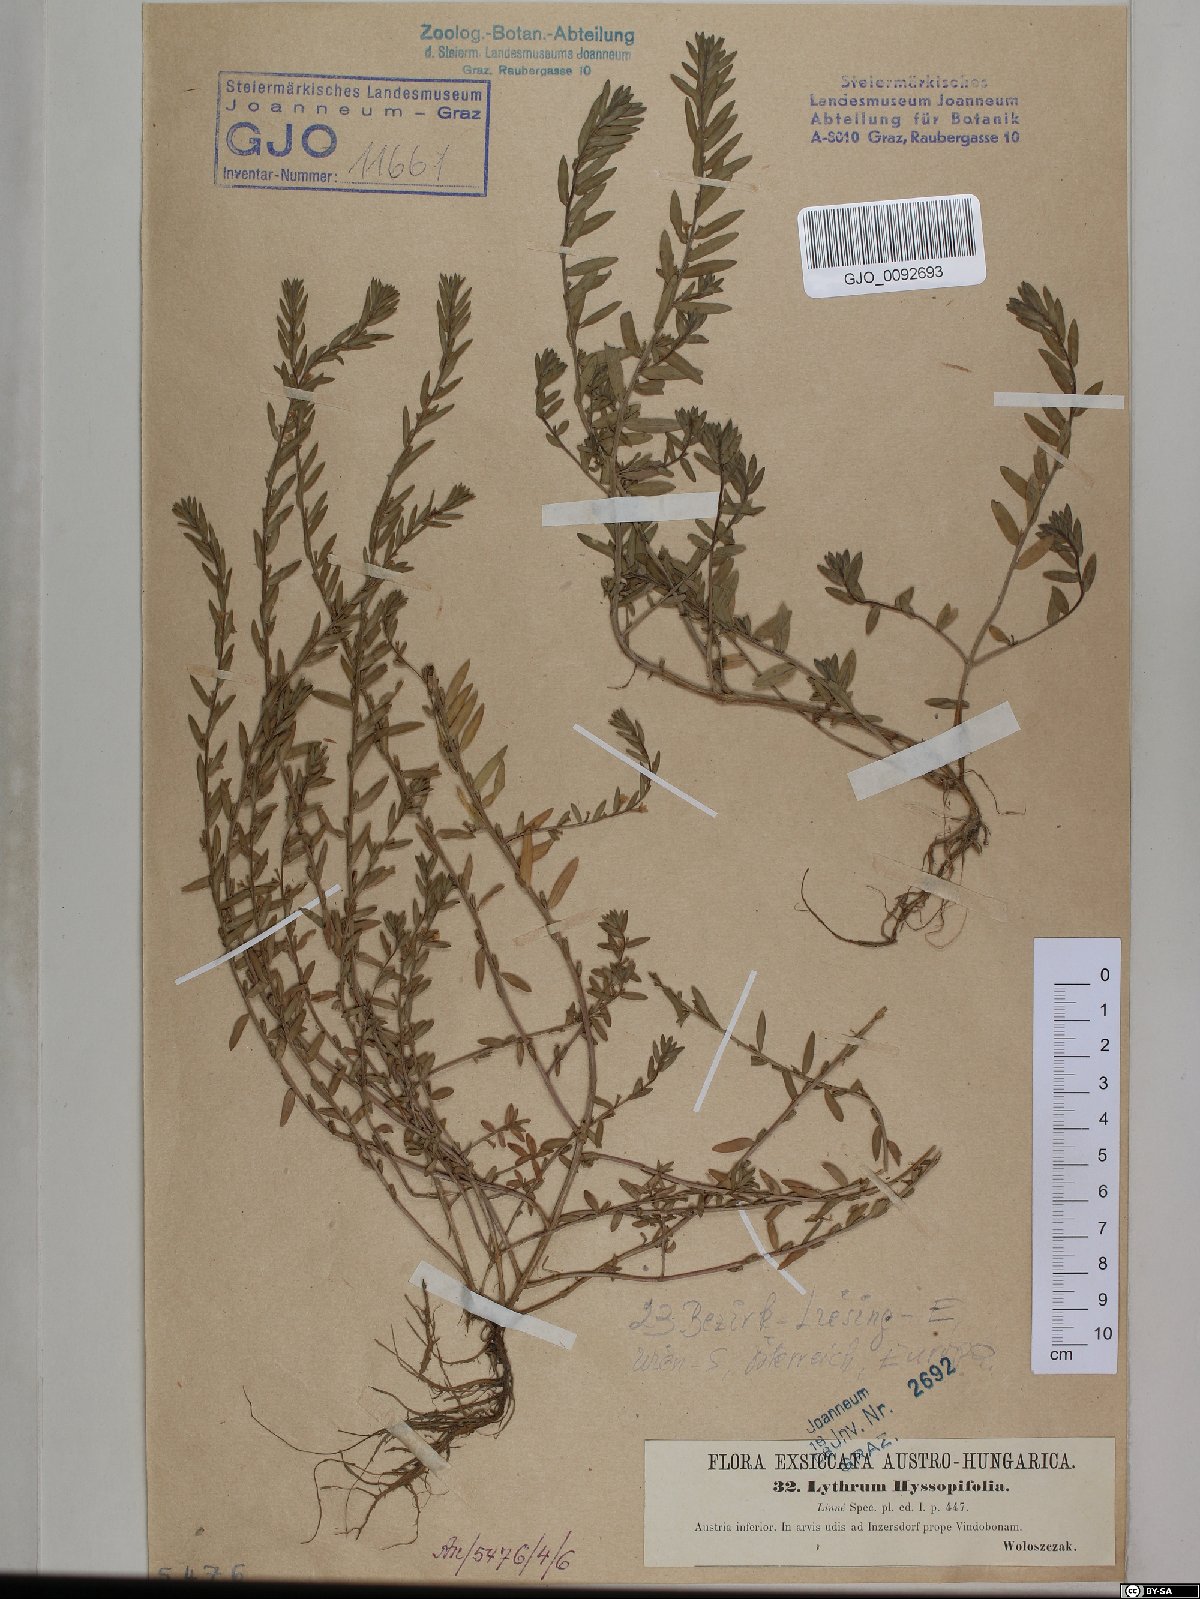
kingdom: Plantae
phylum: Tracheophyta
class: Magnoliopsida
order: Myrtales
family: Lythraceae
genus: Lythrum
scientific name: Lythrum hyssopifolia
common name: Grass-poly
